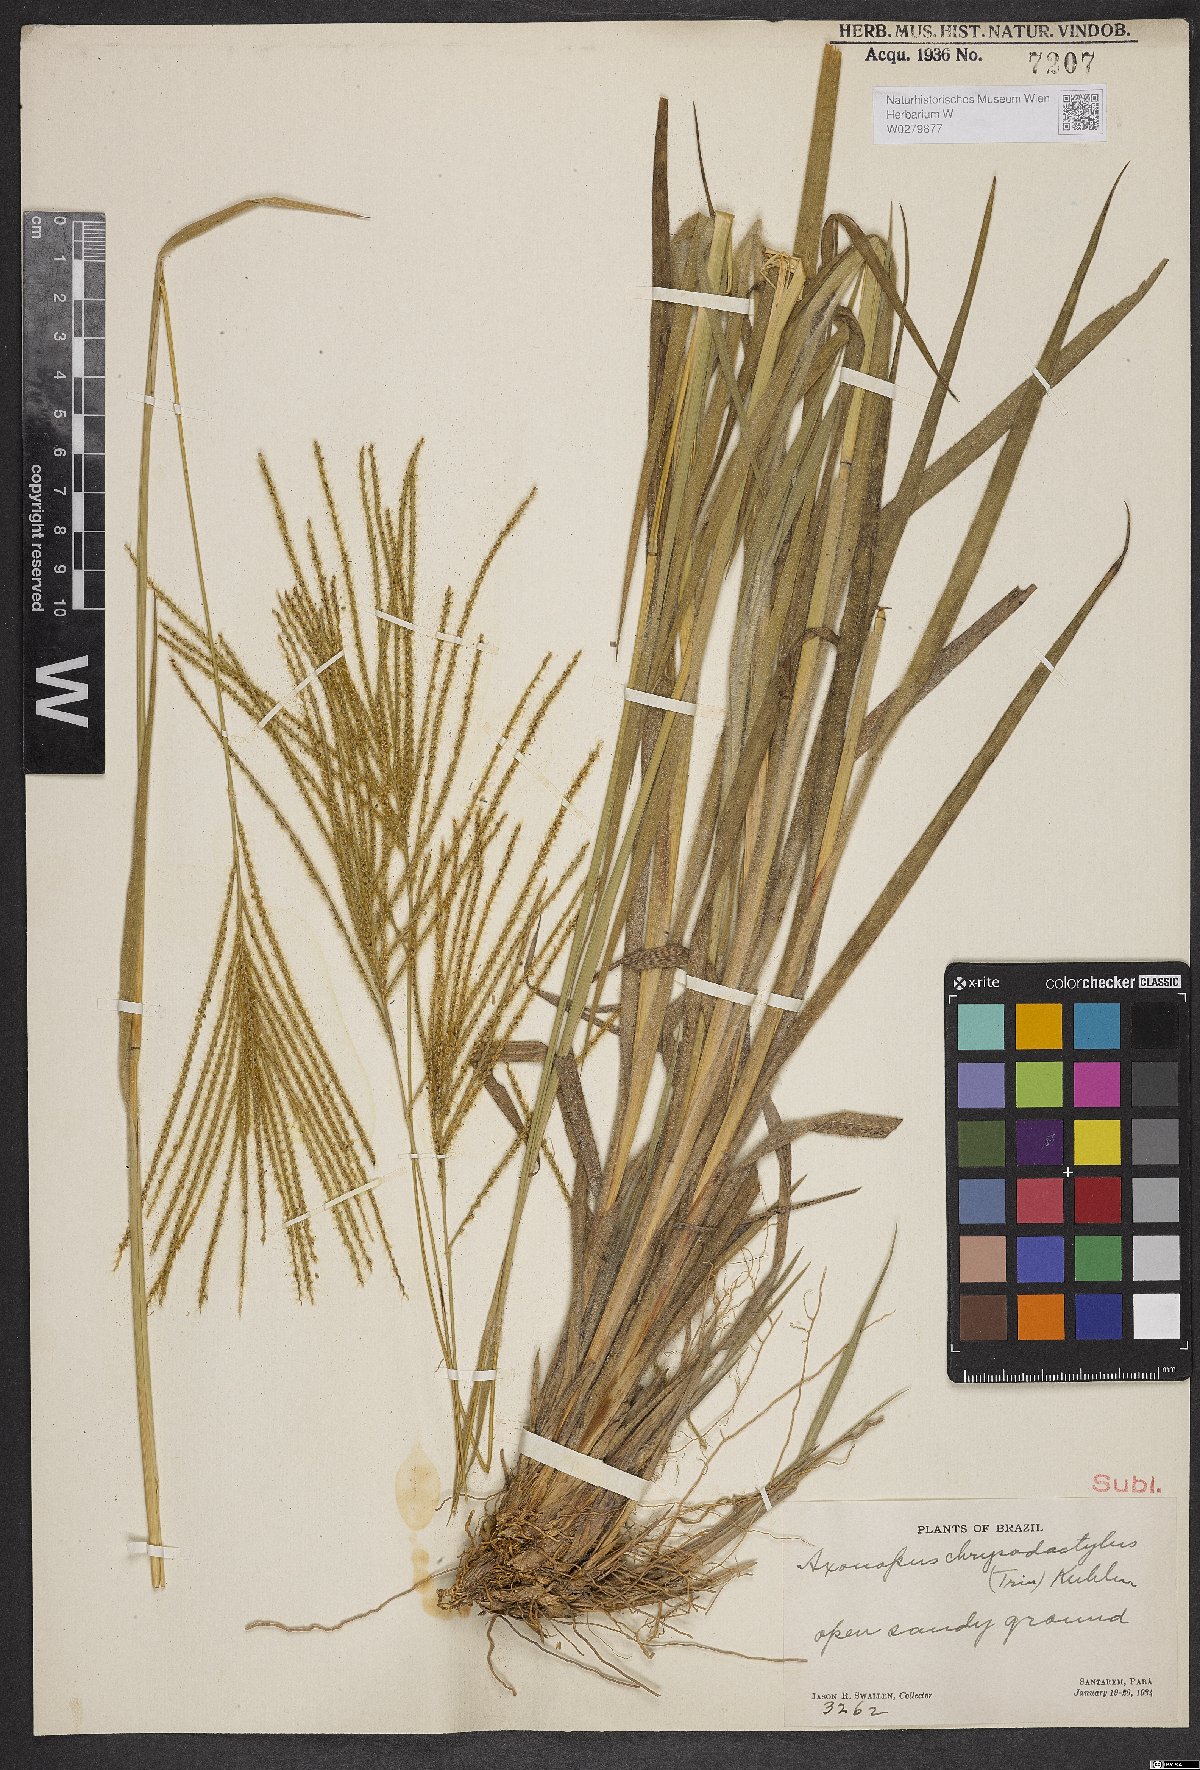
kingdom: Plantae
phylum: Tracheophyta
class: Liliopsida
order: Poales
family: Poaceae
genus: Axonopus
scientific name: Axonopus aureus
